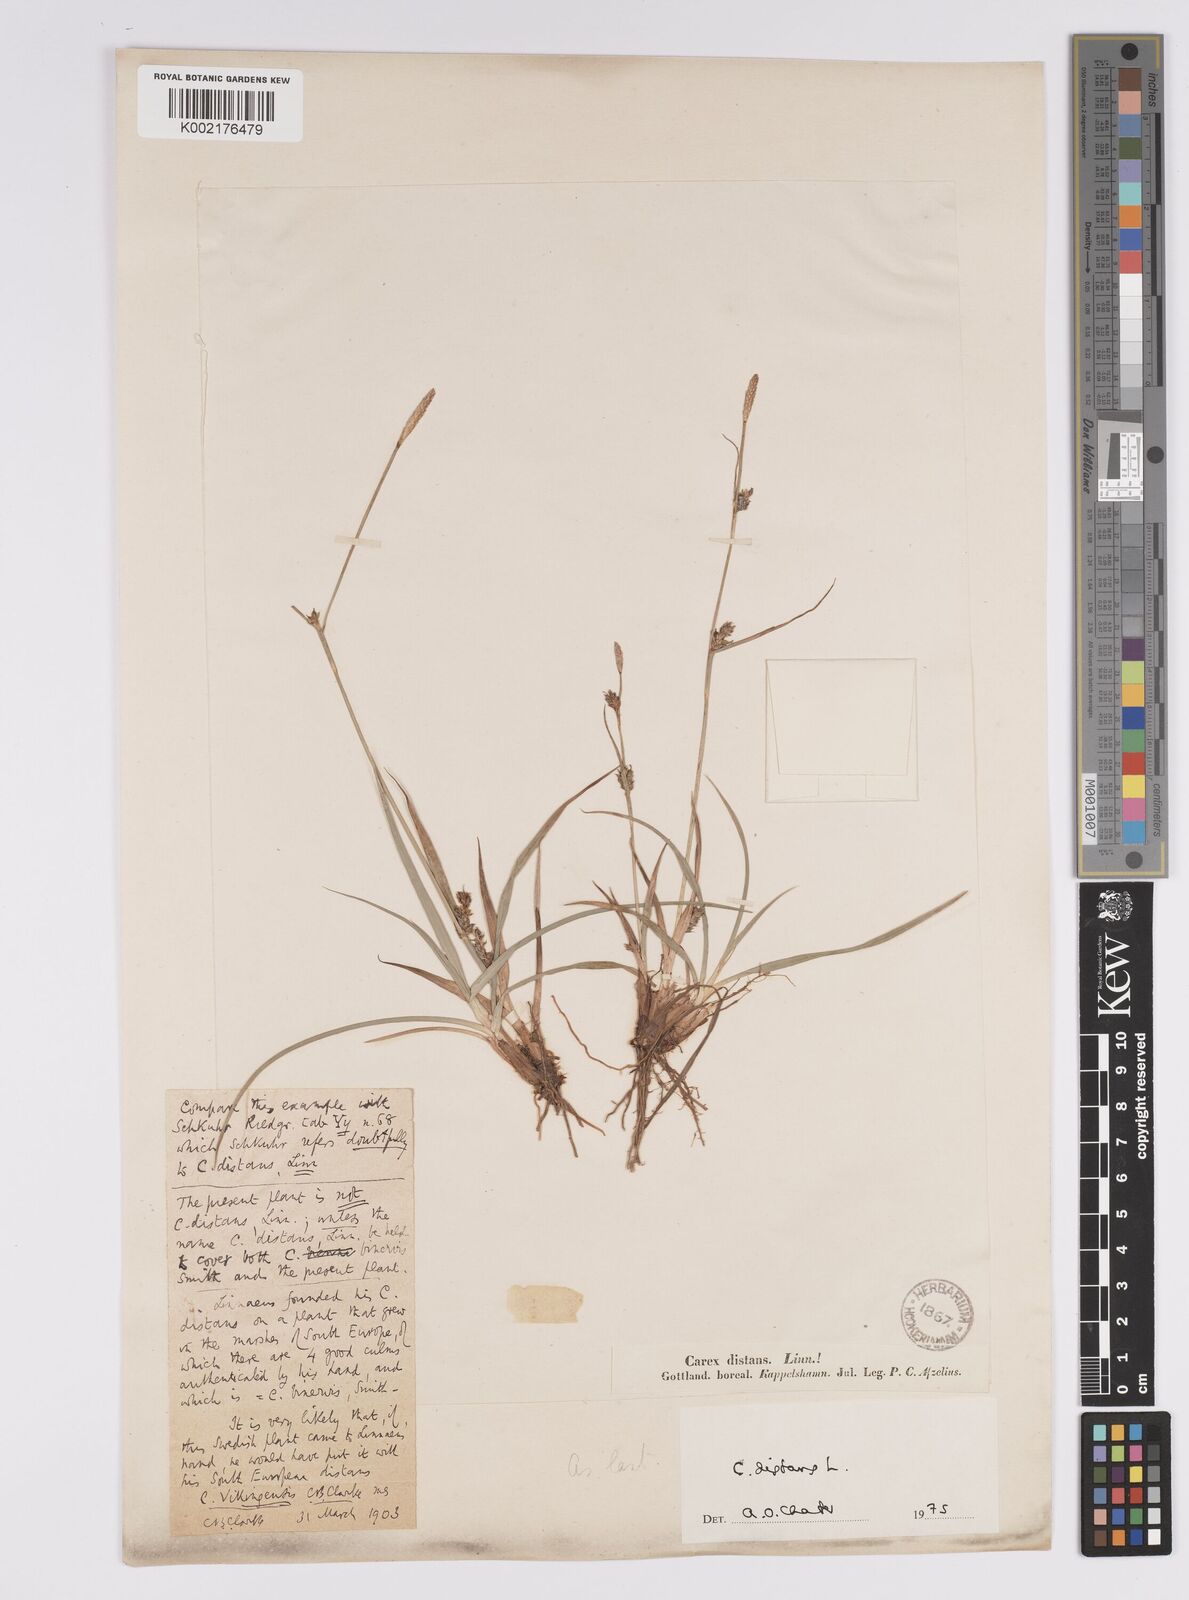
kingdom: Plantae
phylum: Tracheophyta
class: Liliopsida
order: Poales
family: Cyperaceae
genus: Carex
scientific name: Carex distans
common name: Distant sedge
